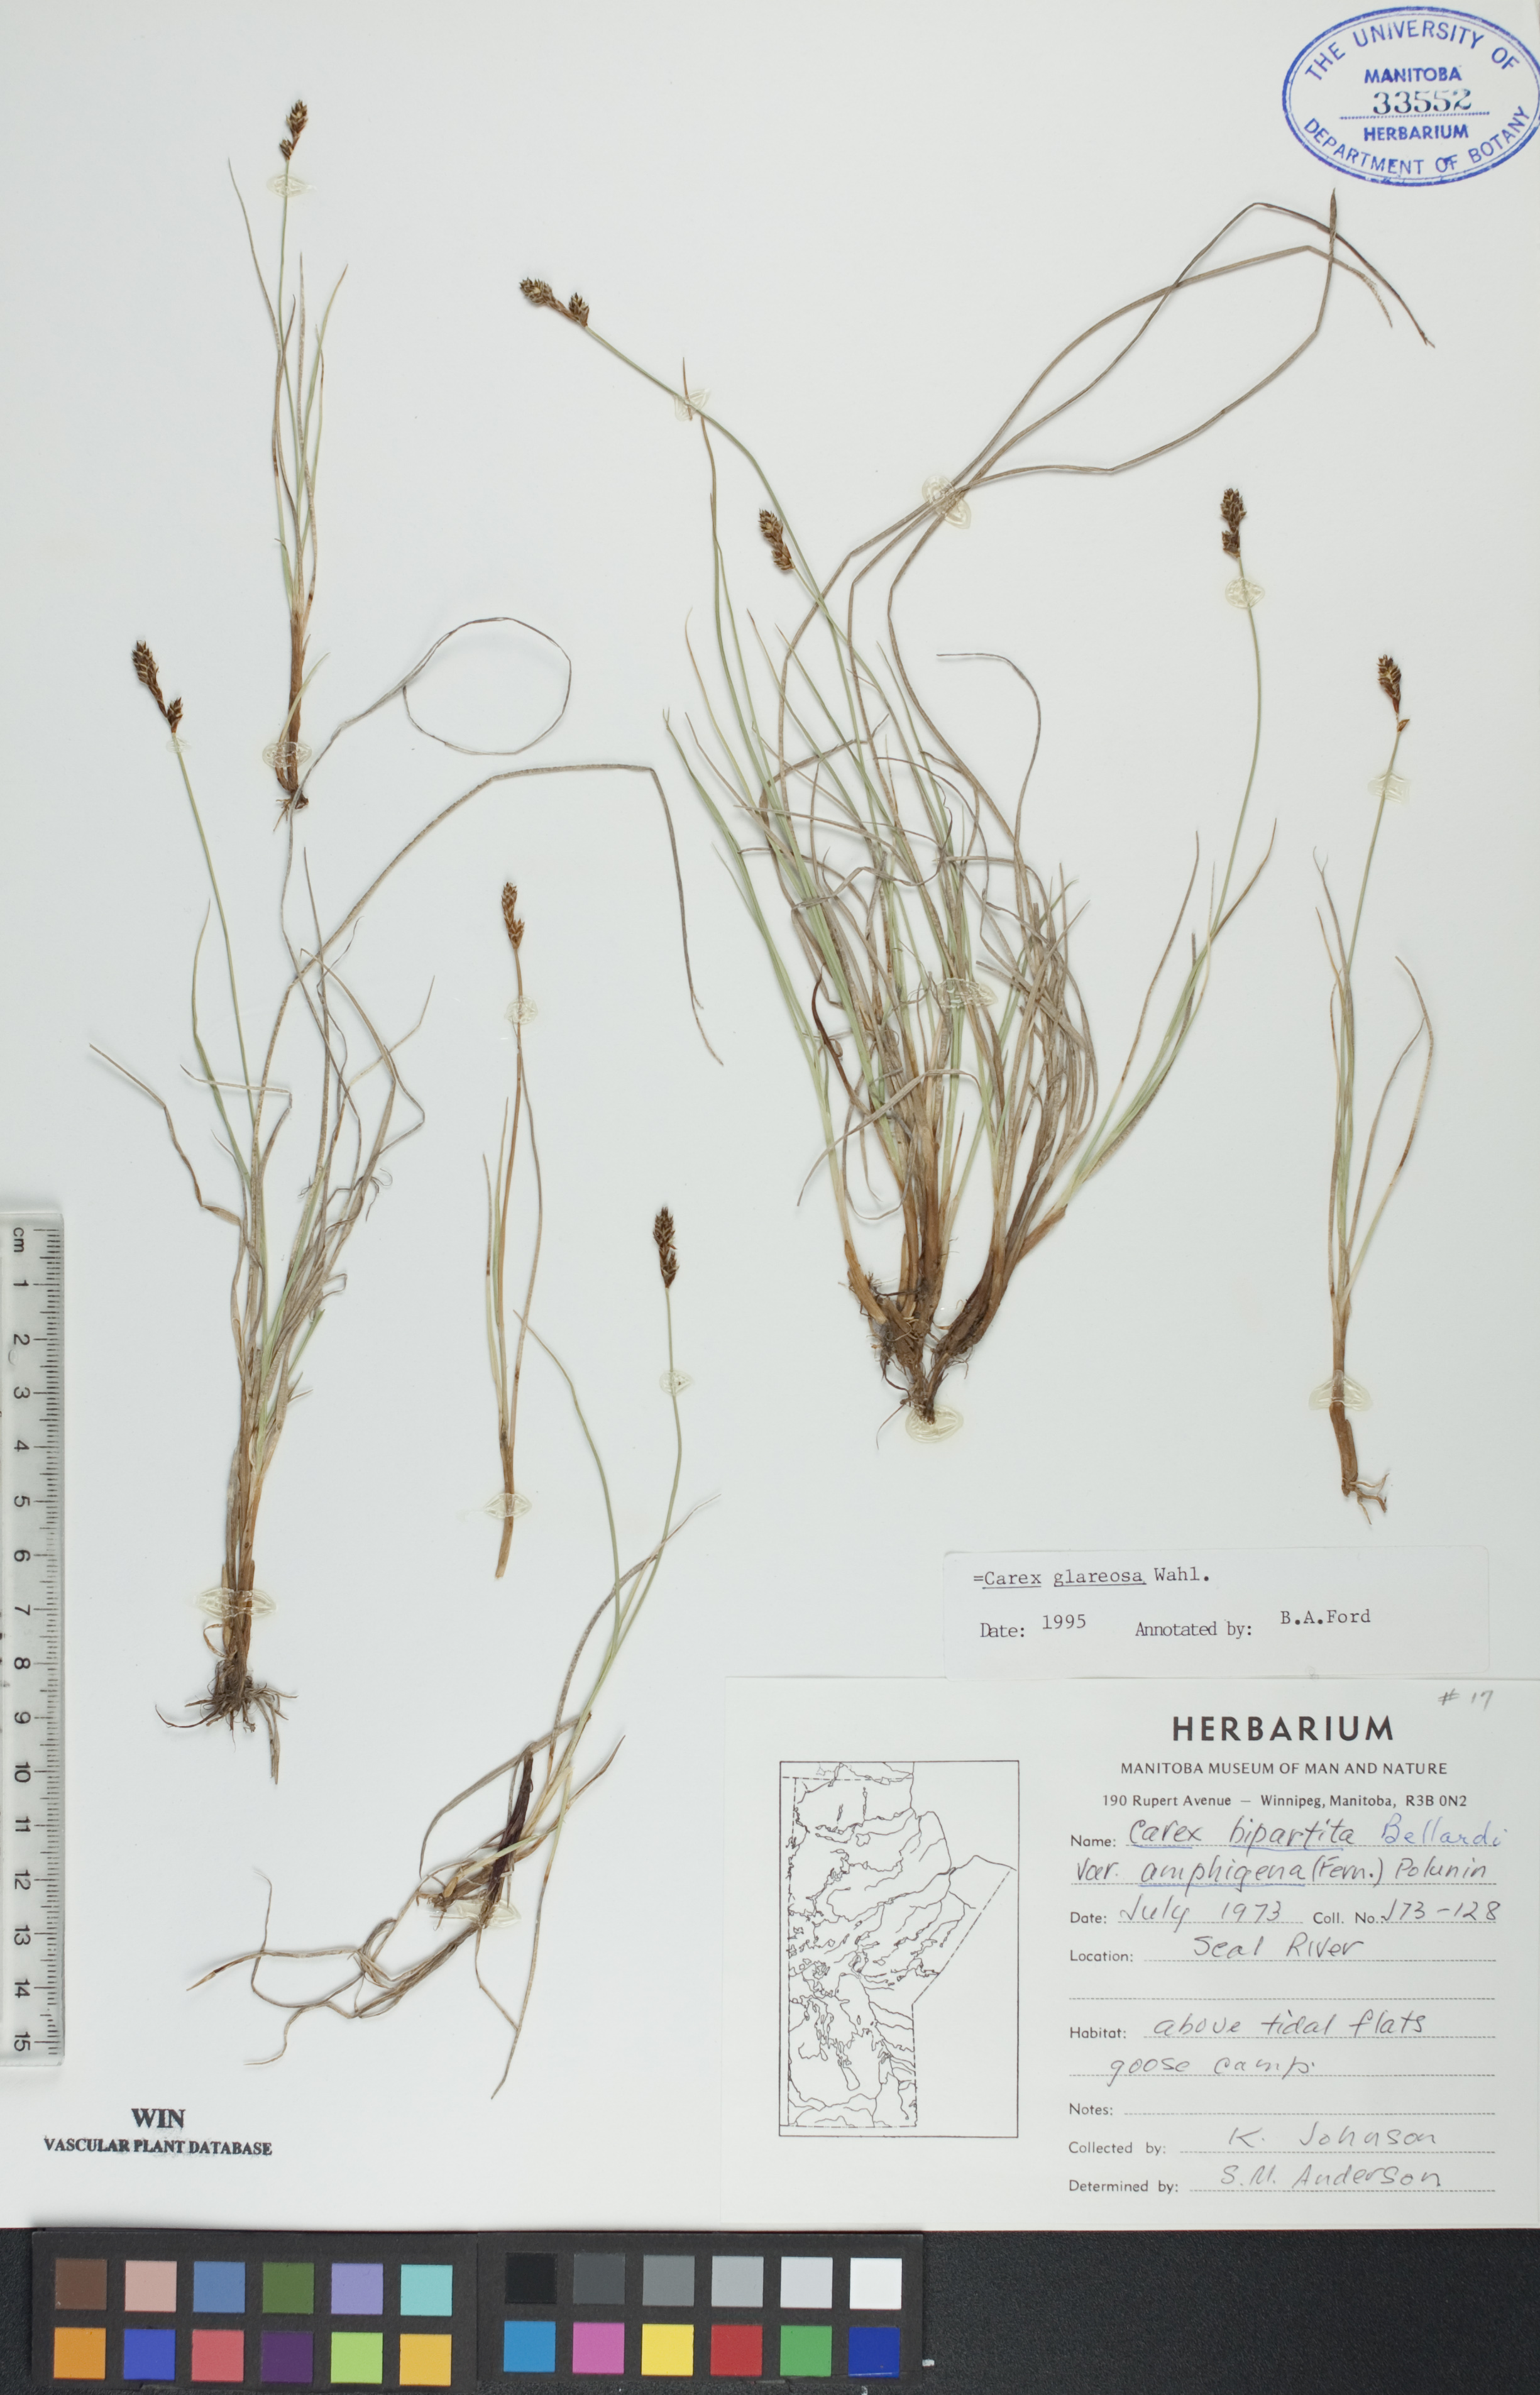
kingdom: Plantae
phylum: Tracheophyta
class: Liliopsida
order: Poales
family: Cyperaceae
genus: Carex
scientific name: Carex glareosa
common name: Clustered sedge
